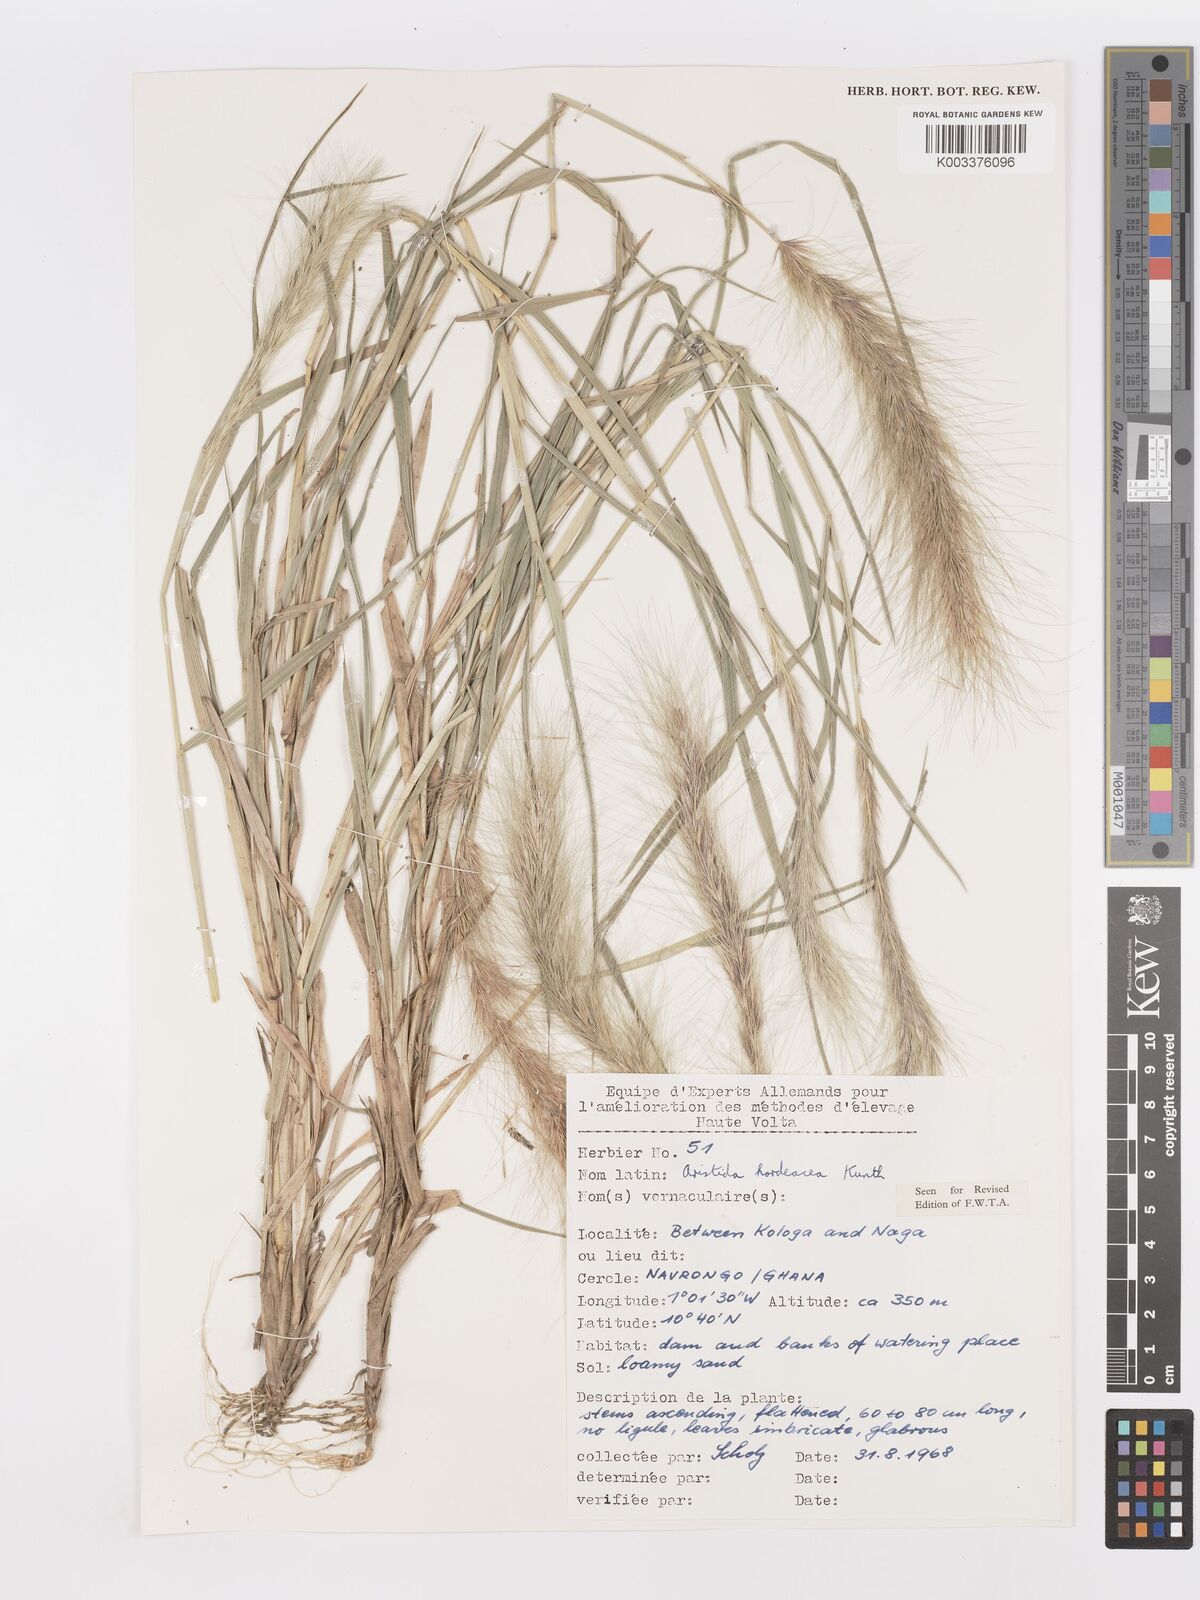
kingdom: Plantae
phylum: Tracheophyta
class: Liliopsida
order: Poales
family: Poaceae
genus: Aristida
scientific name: Aristida hordeacea
